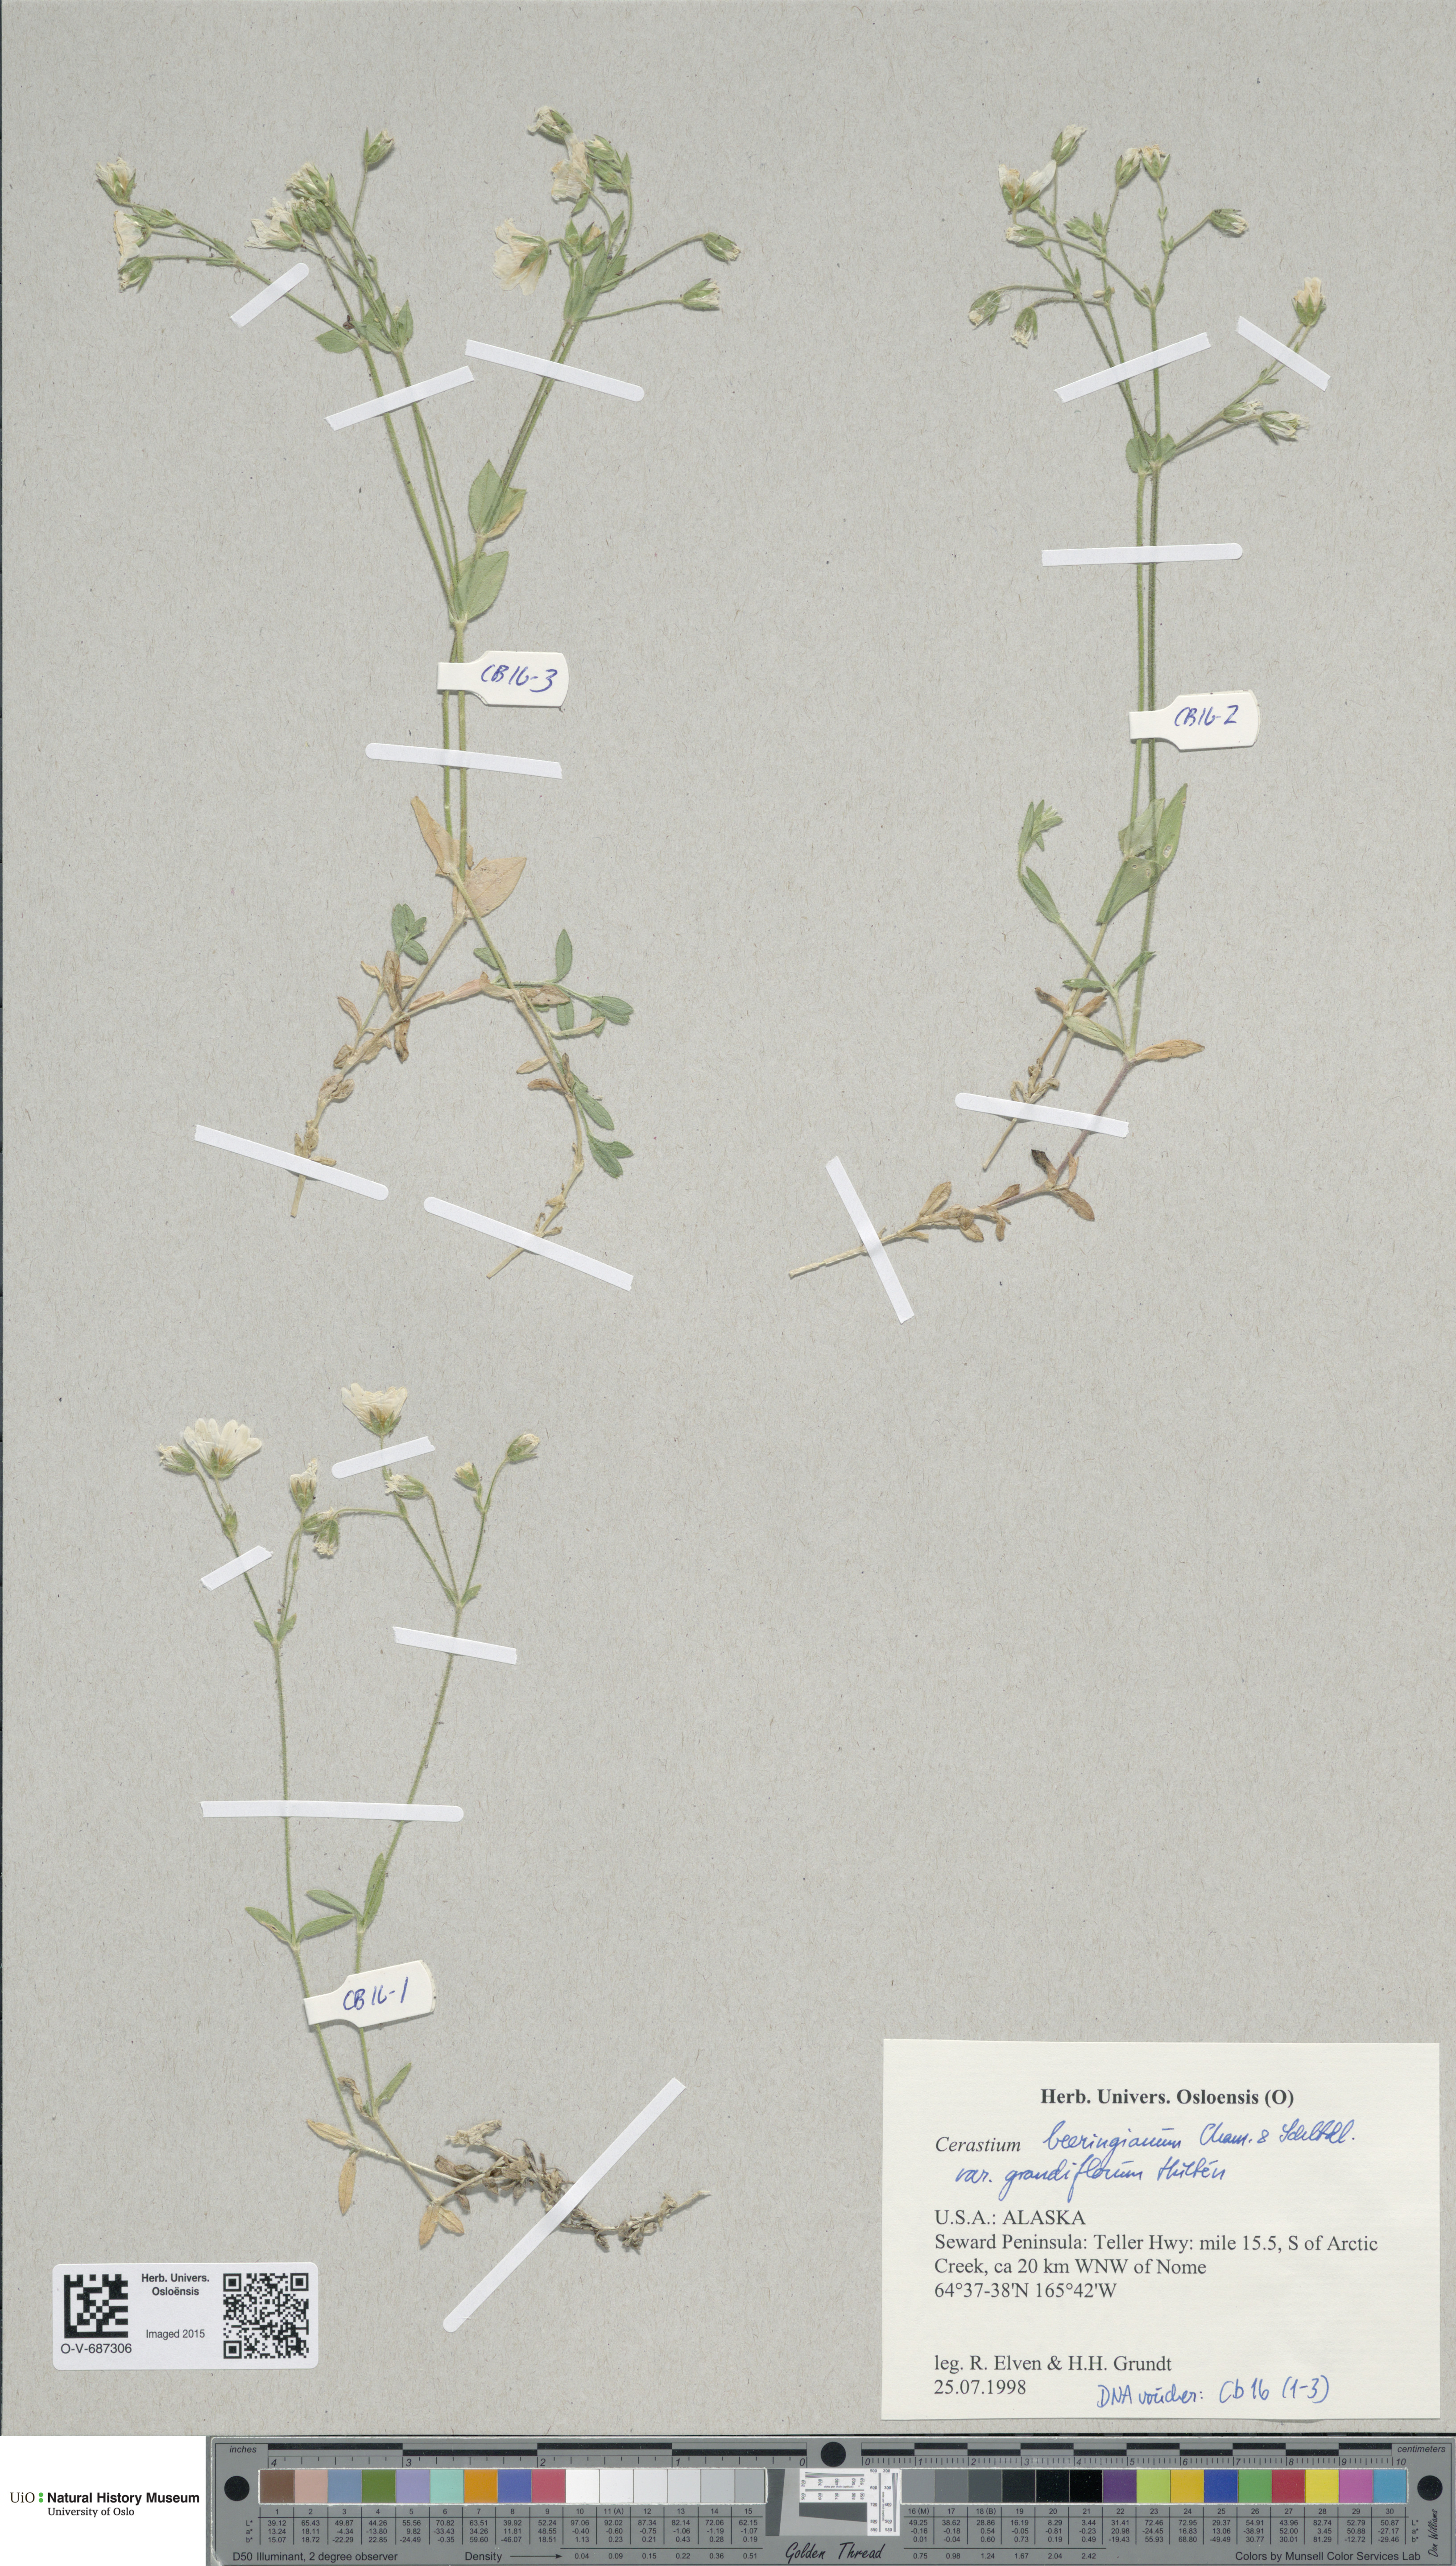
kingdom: Plantae
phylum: Tracheophyta
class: Magnoliopsida
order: Caryophyllales
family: Caryophyllaceae
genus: Cerastium
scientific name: Cerastium beeringianum
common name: Bering mouse-ear chickweed
